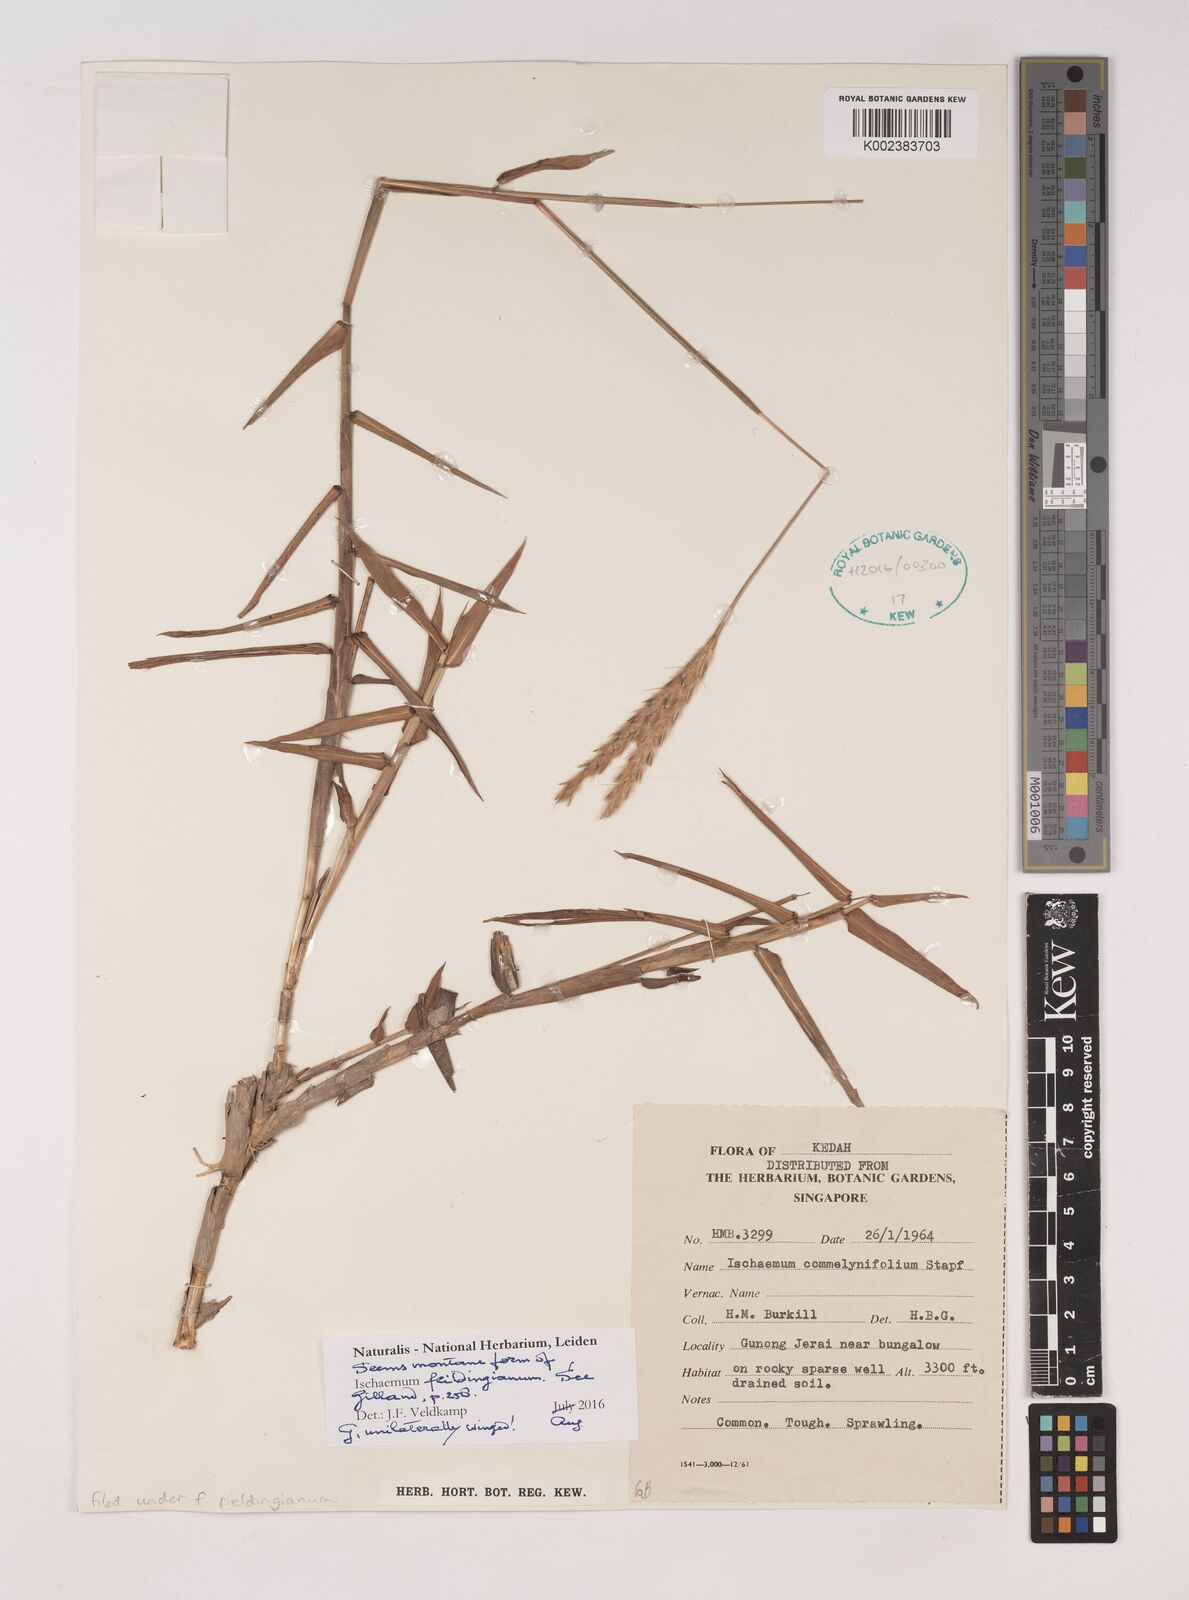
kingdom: Plantae
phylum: Tracheophyta
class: Liliopsida
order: Poales
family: Poaceae
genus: Ischaemum
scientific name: Ischaemum
